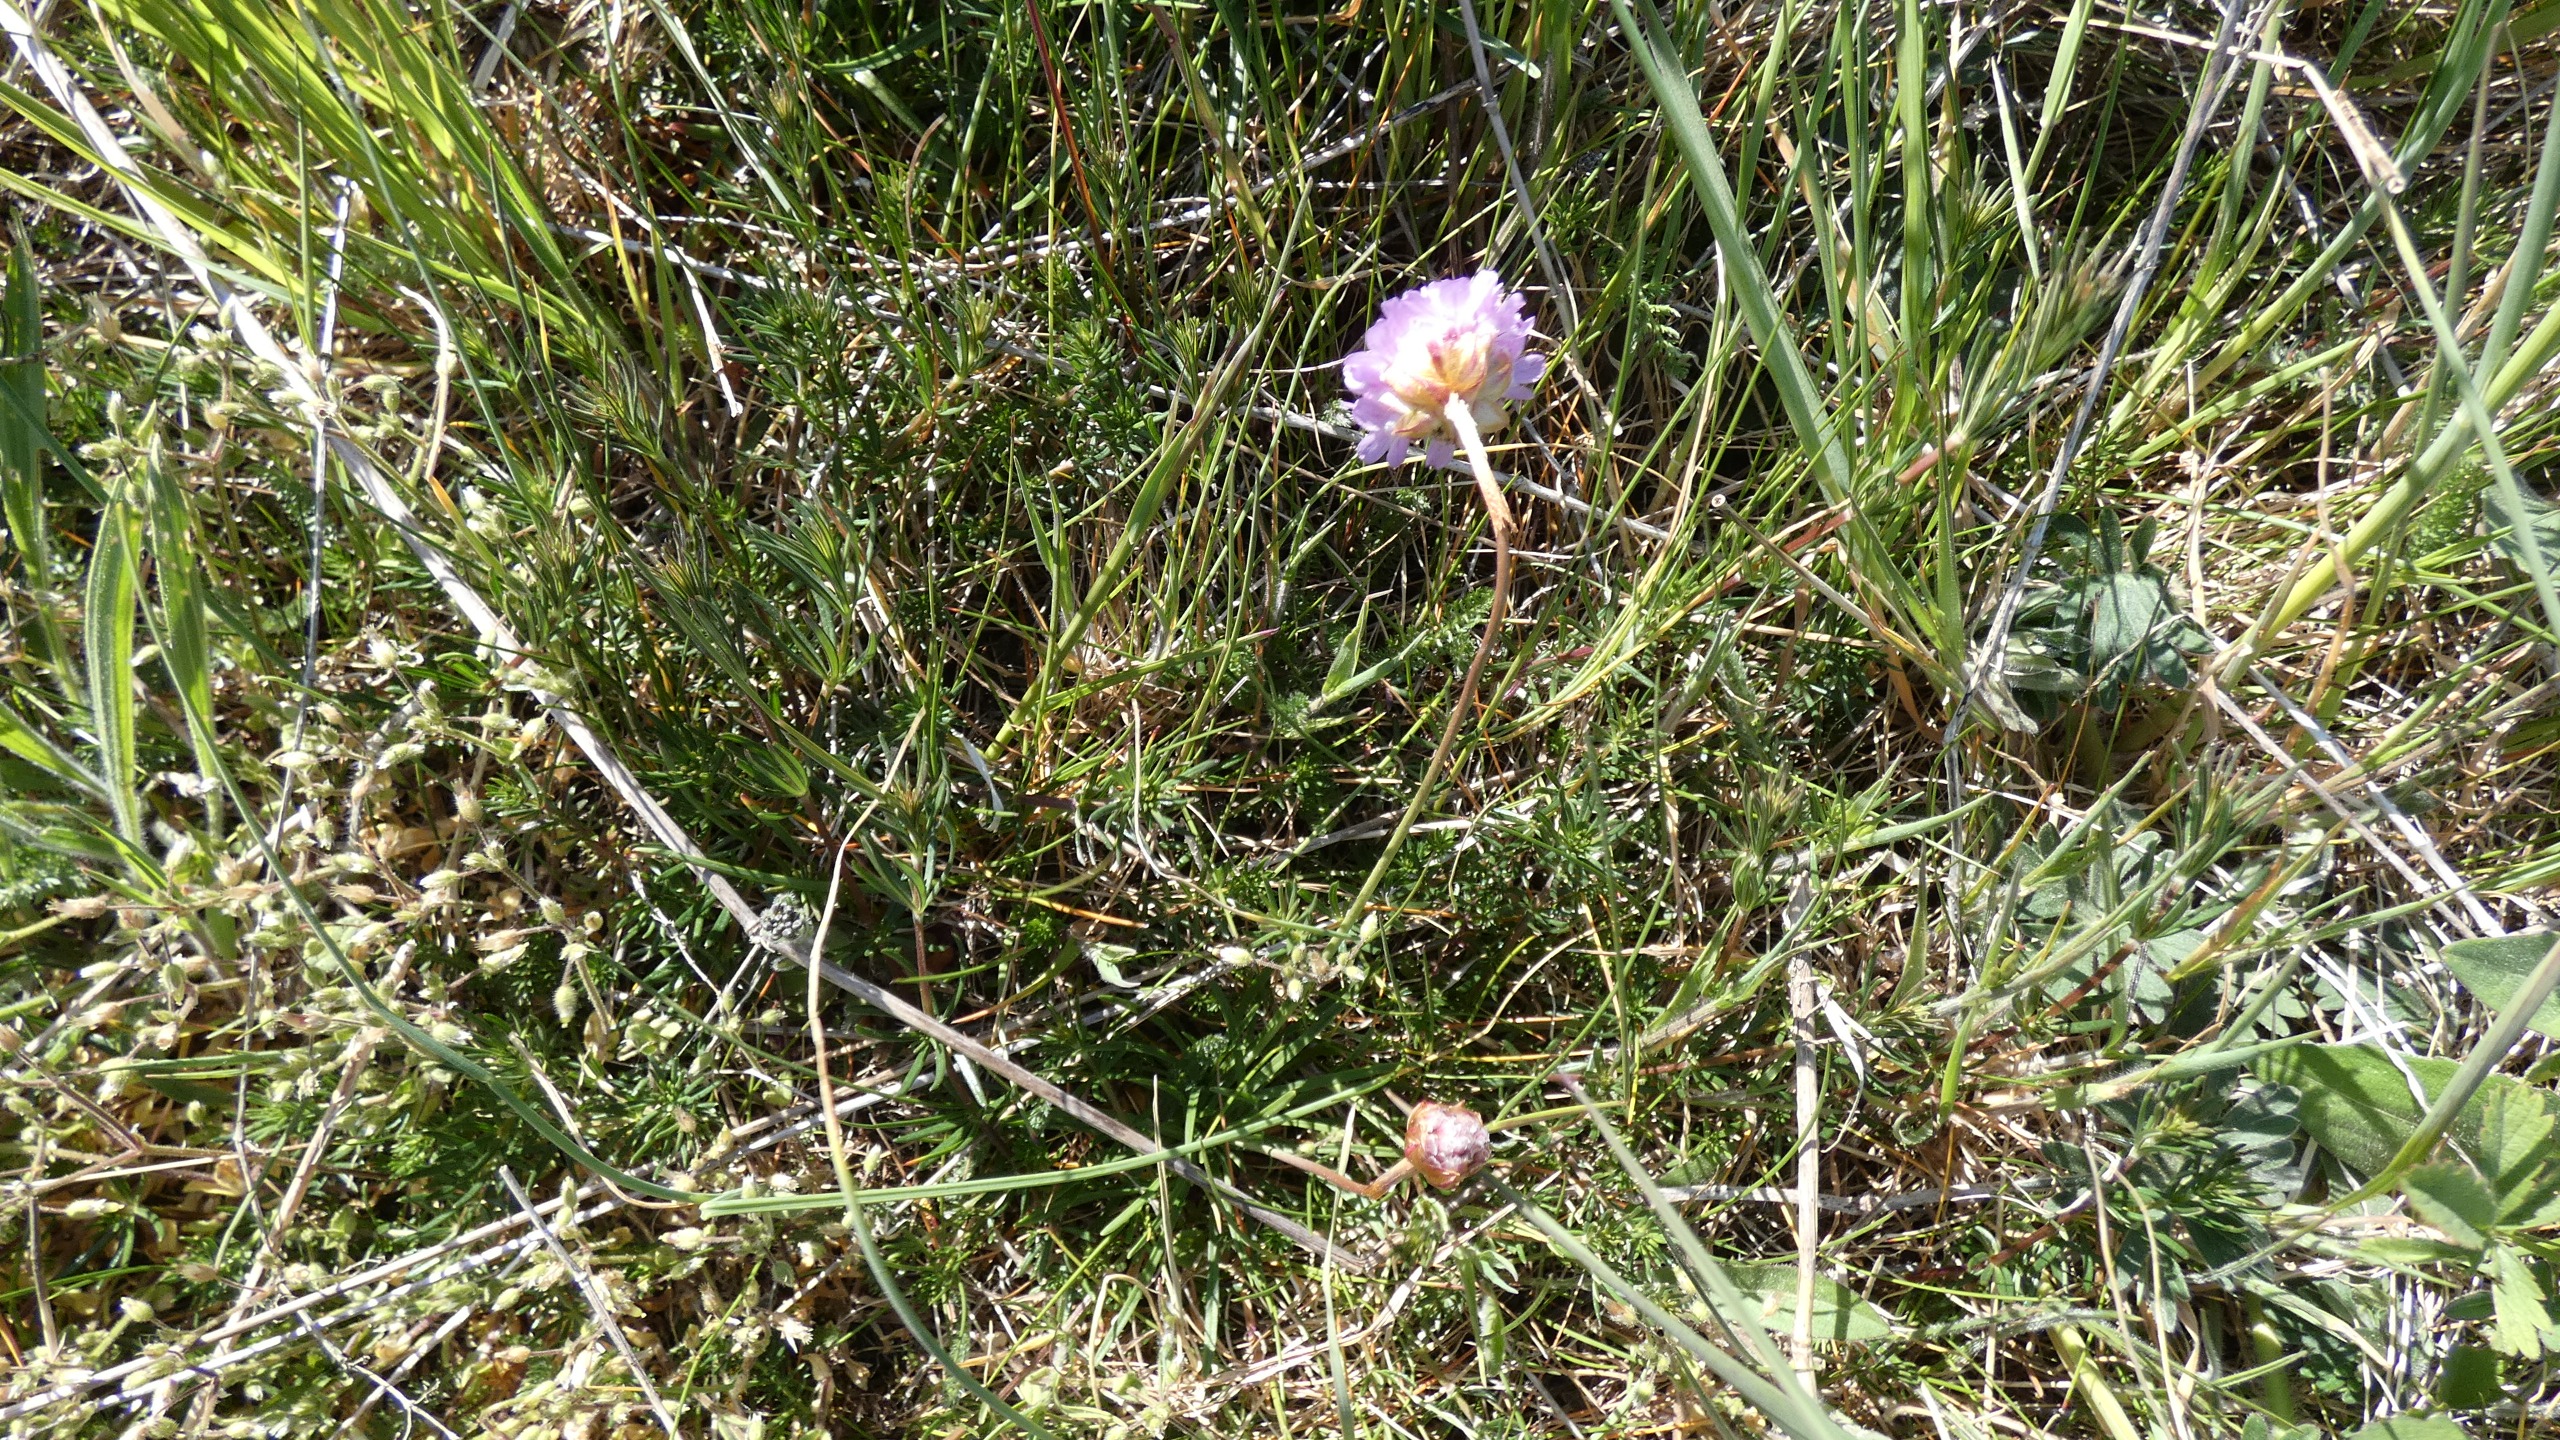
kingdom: Plantae
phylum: Tracheophyta
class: Magnoliopsida
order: Caryophyllales
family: Plumbaginaceae
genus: Armeria
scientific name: Armeria maritima
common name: Engelskgræs
